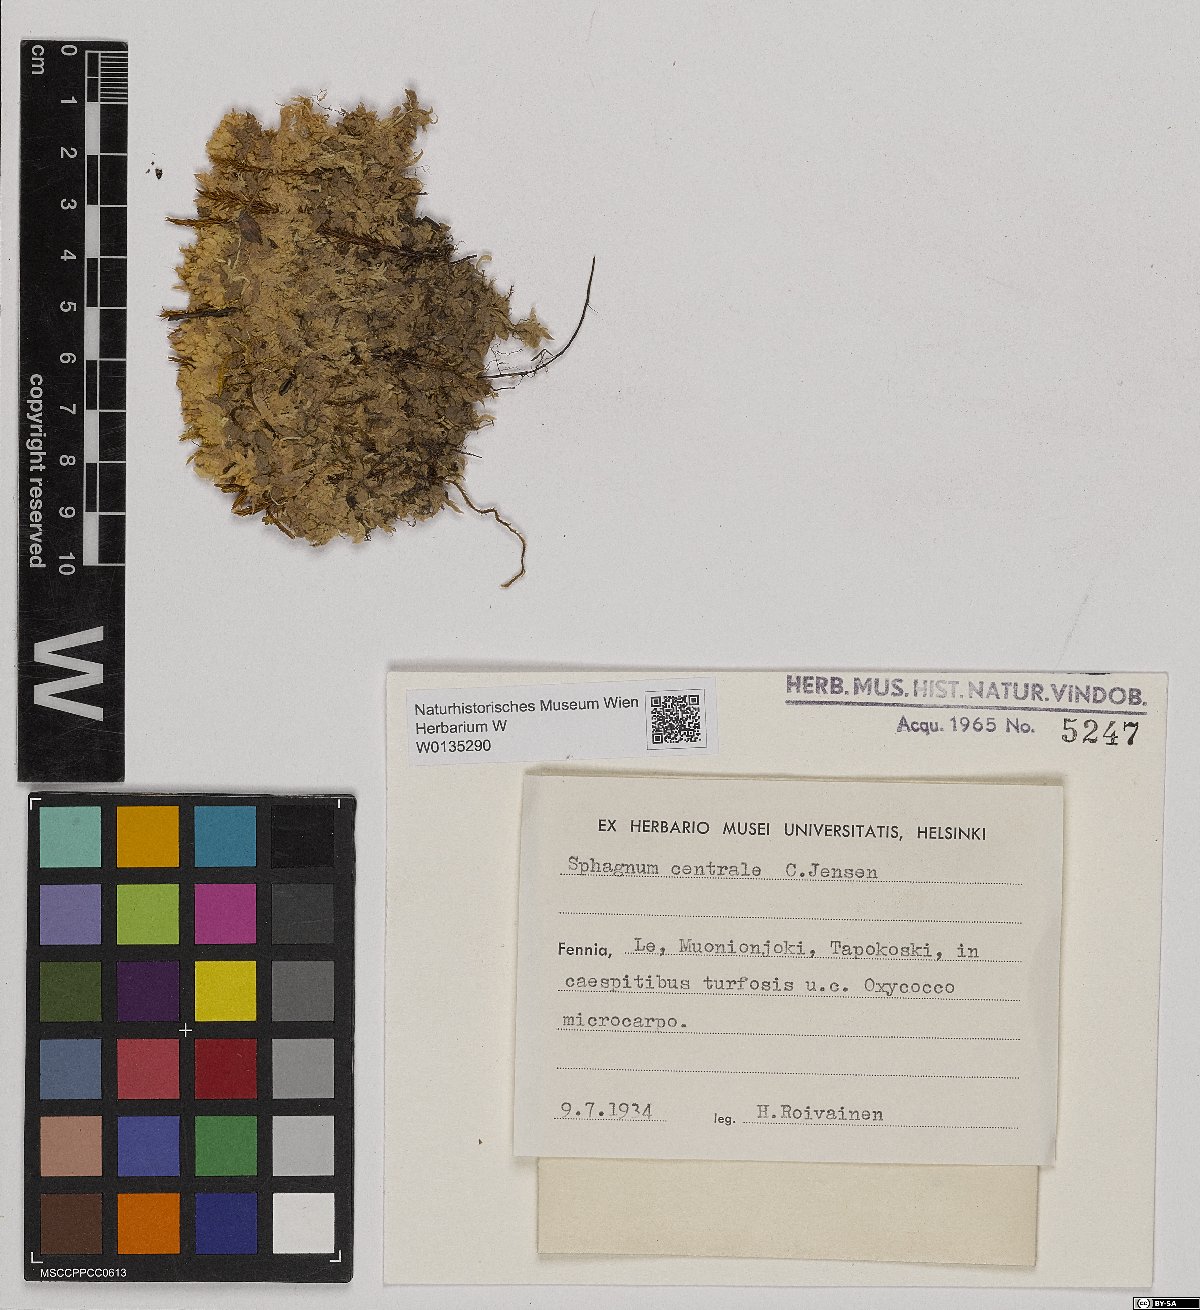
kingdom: Plantae
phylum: Bryophyta
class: Sphagnopsida
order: Sphagnales
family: Sphagnaceae
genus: Sphagnum
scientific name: Sphagnum centrale
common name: Central peat moss
